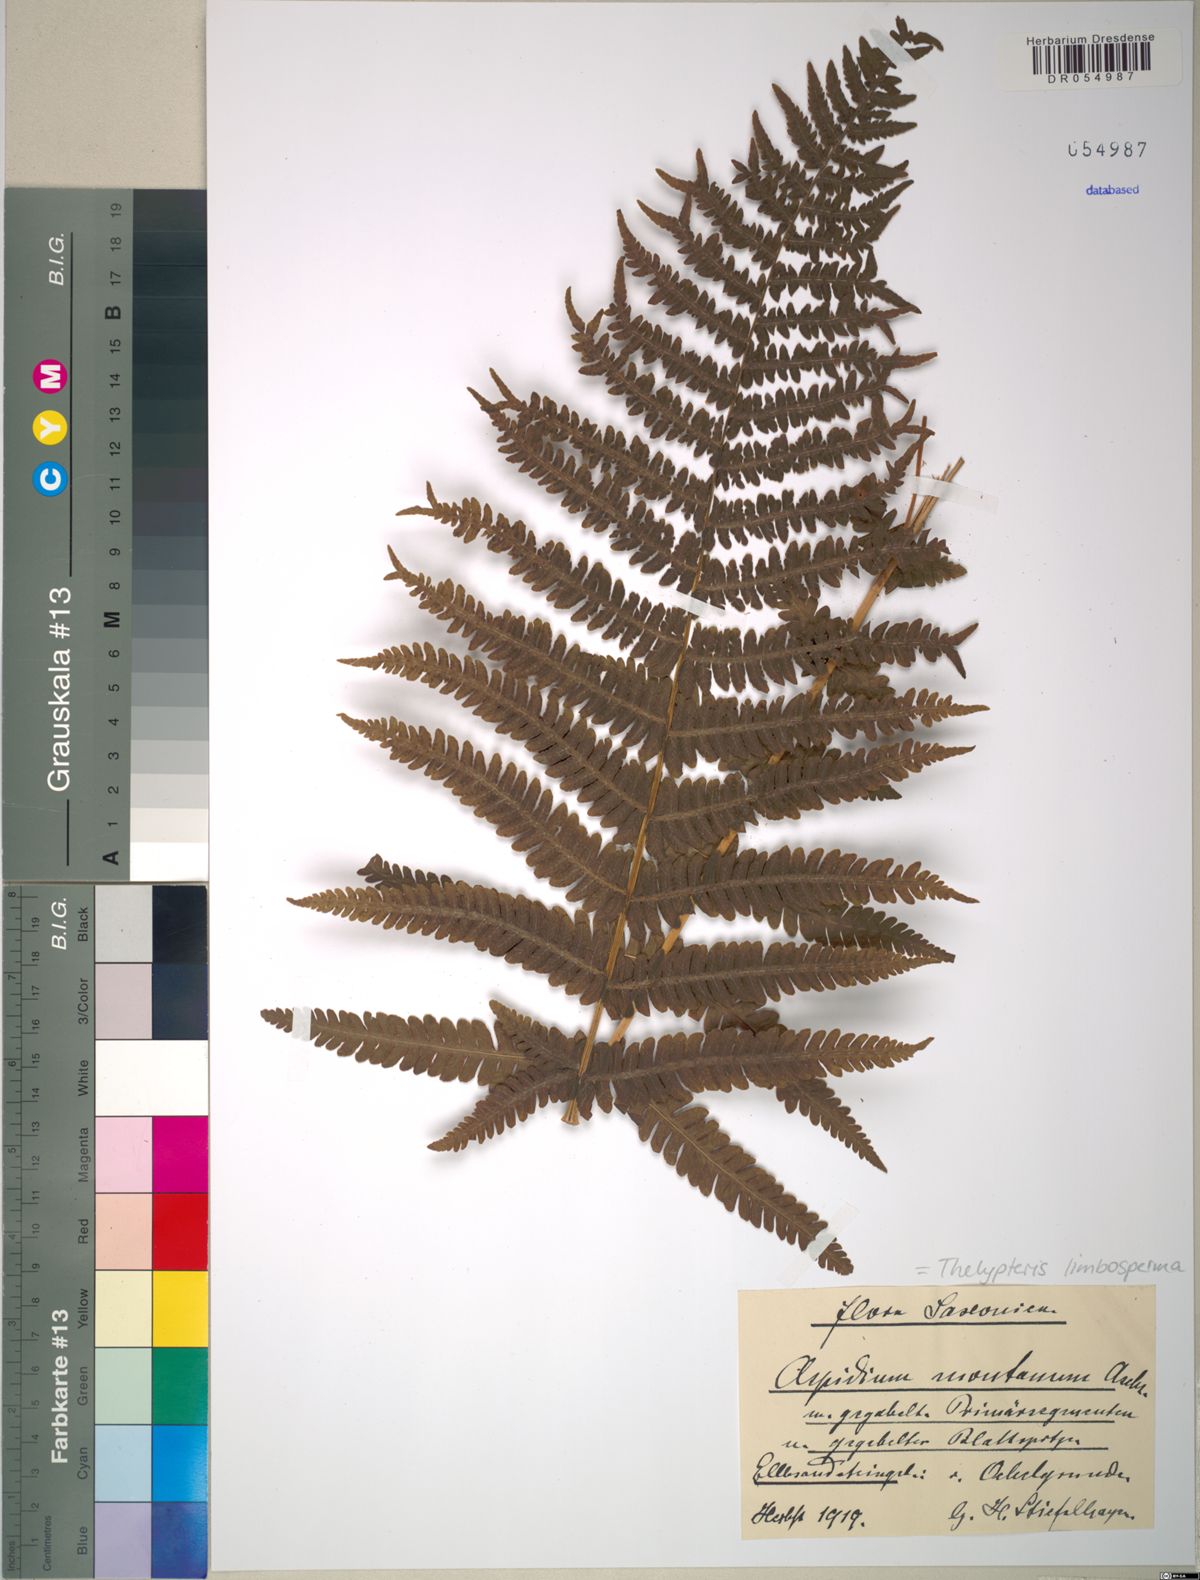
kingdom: Plantae
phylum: Tracheophyta
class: Polypodiopsida
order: Polypodiales
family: Thelypteridaceae
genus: Oreopteris
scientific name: Oreopteris limbosperma
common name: Lemon-scented fern
